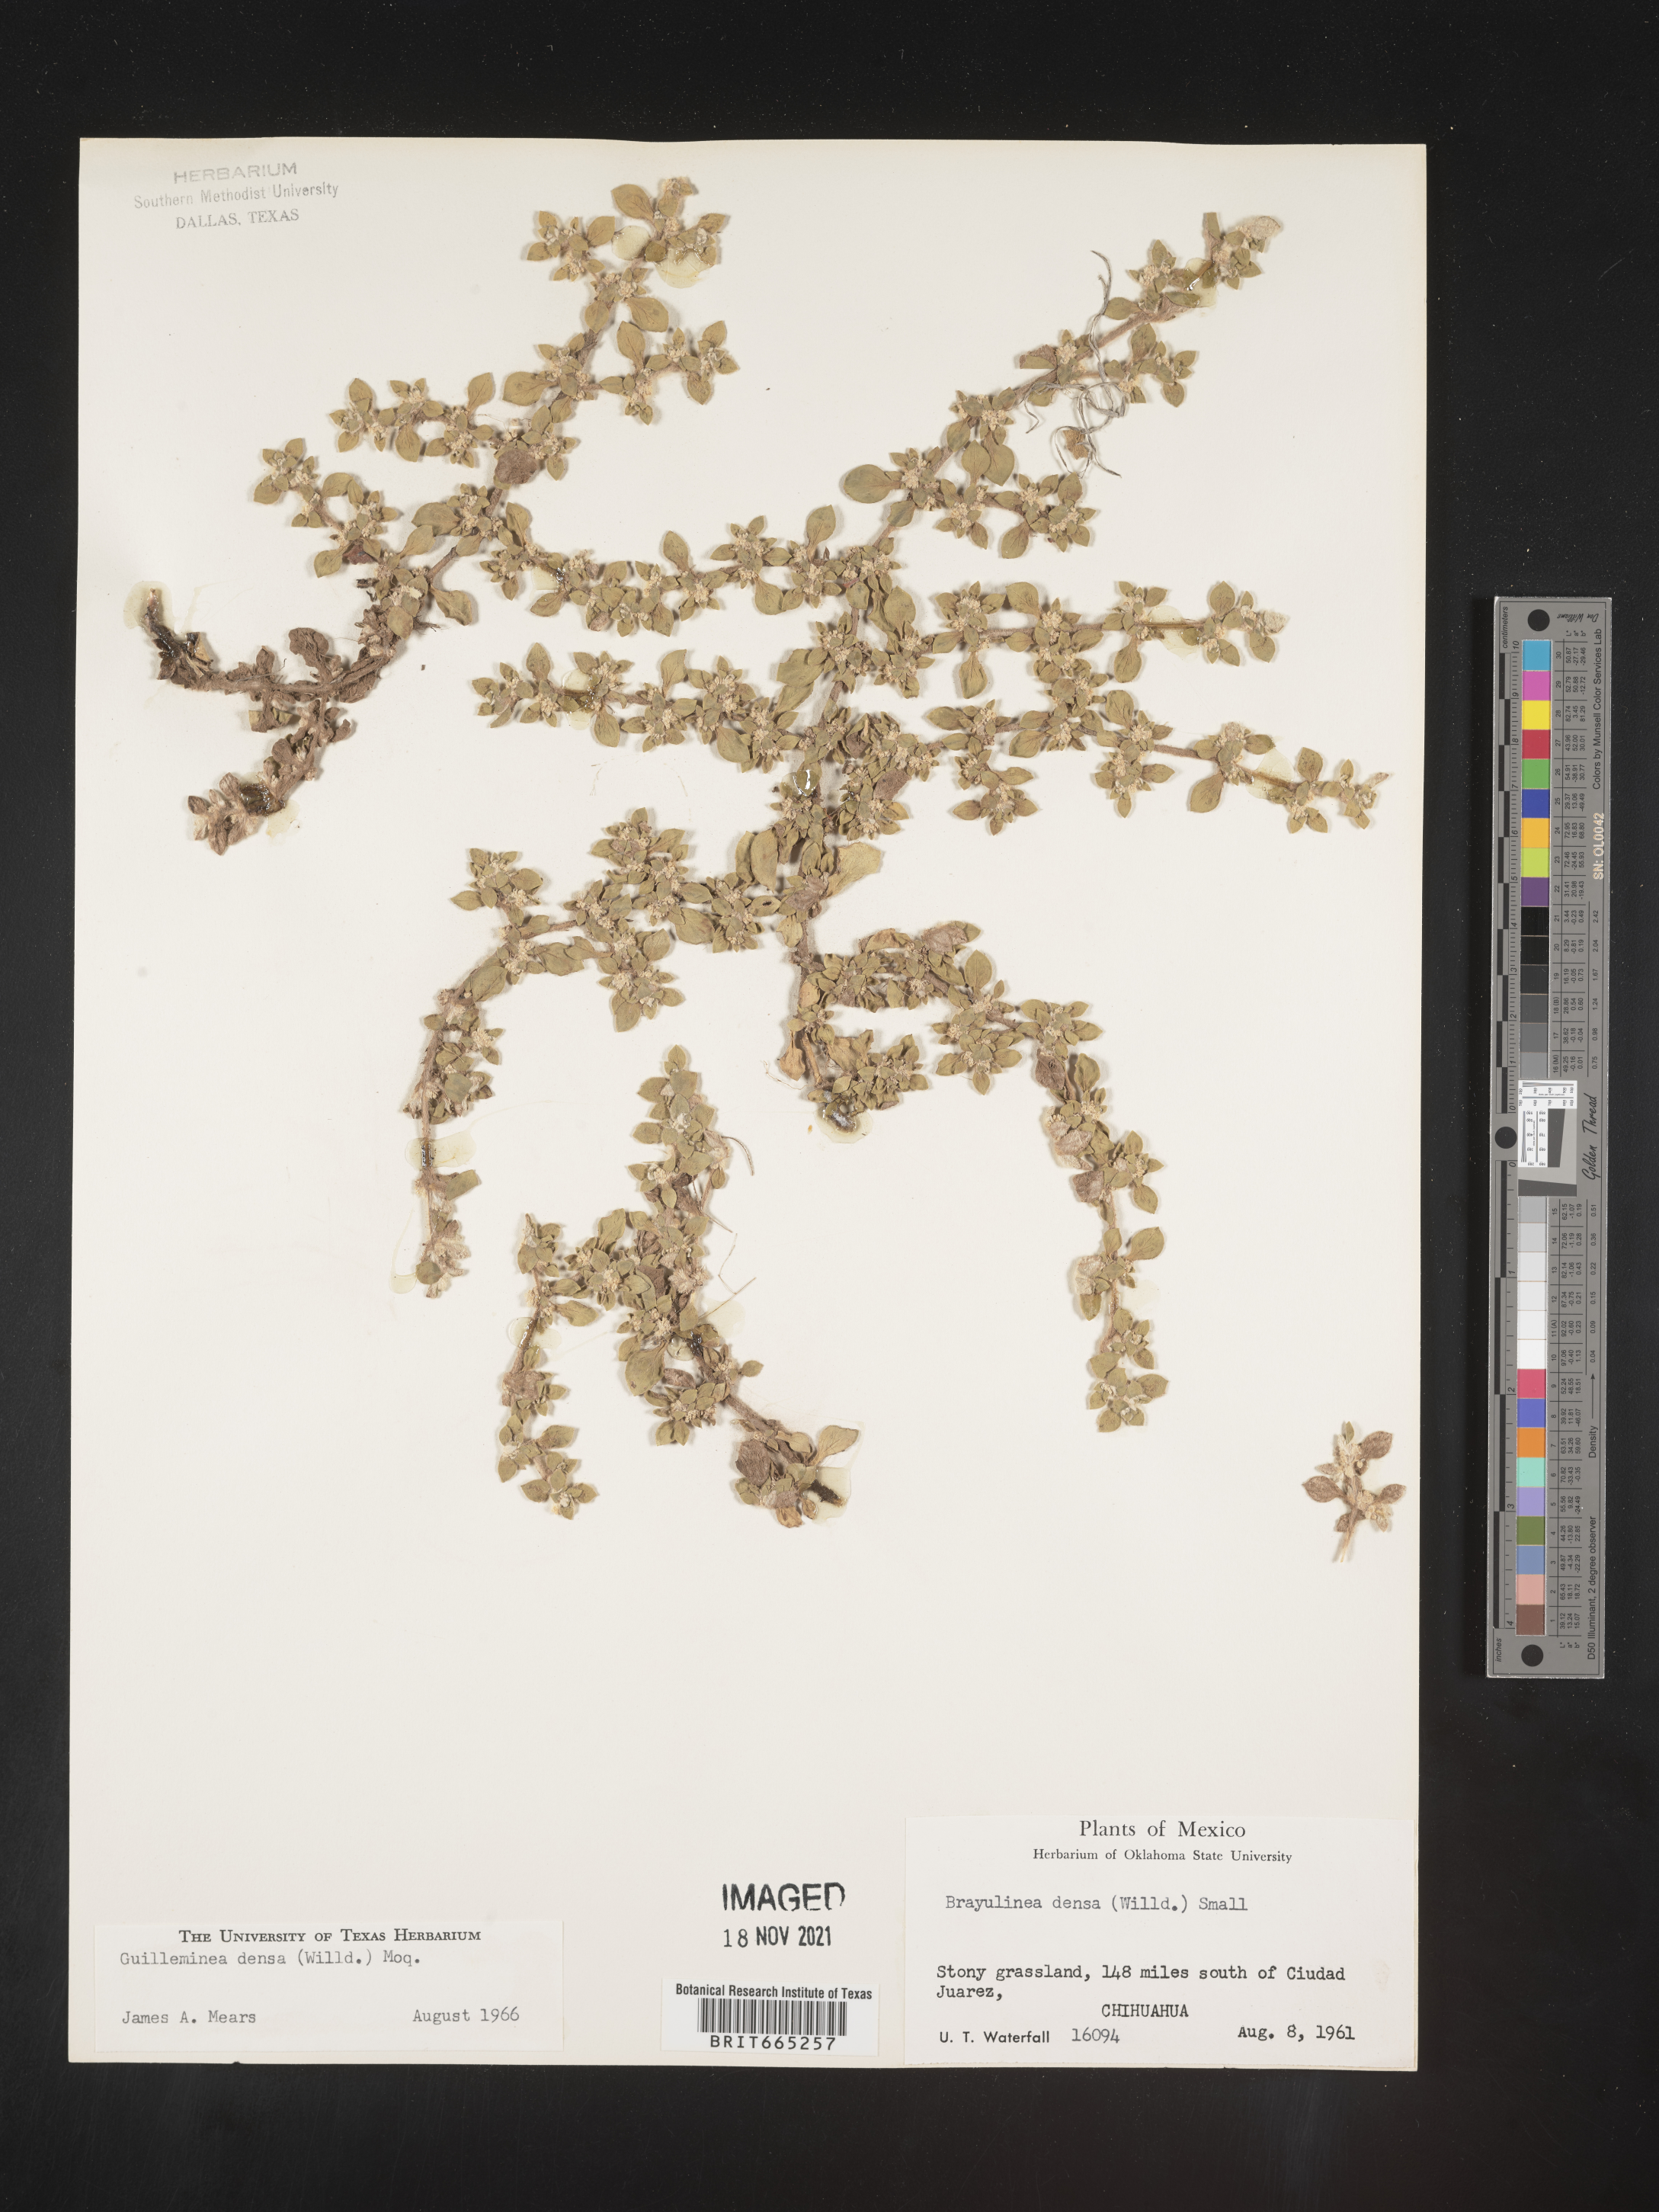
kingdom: Plantae
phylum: Tracheophyta
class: Magnoliopsida
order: Caryophyllales
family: Amaranthaceae
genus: Guilleminea
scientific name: Guilleminea densa
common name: Small matweed
